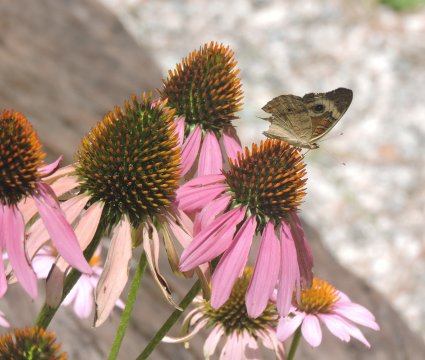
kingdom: Animalia
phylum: Arthropoda
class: Insecta
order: Lepidoptera
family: Nymphalidae
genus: Junonia
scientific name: Junonia coenia
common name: Common Buckeye
